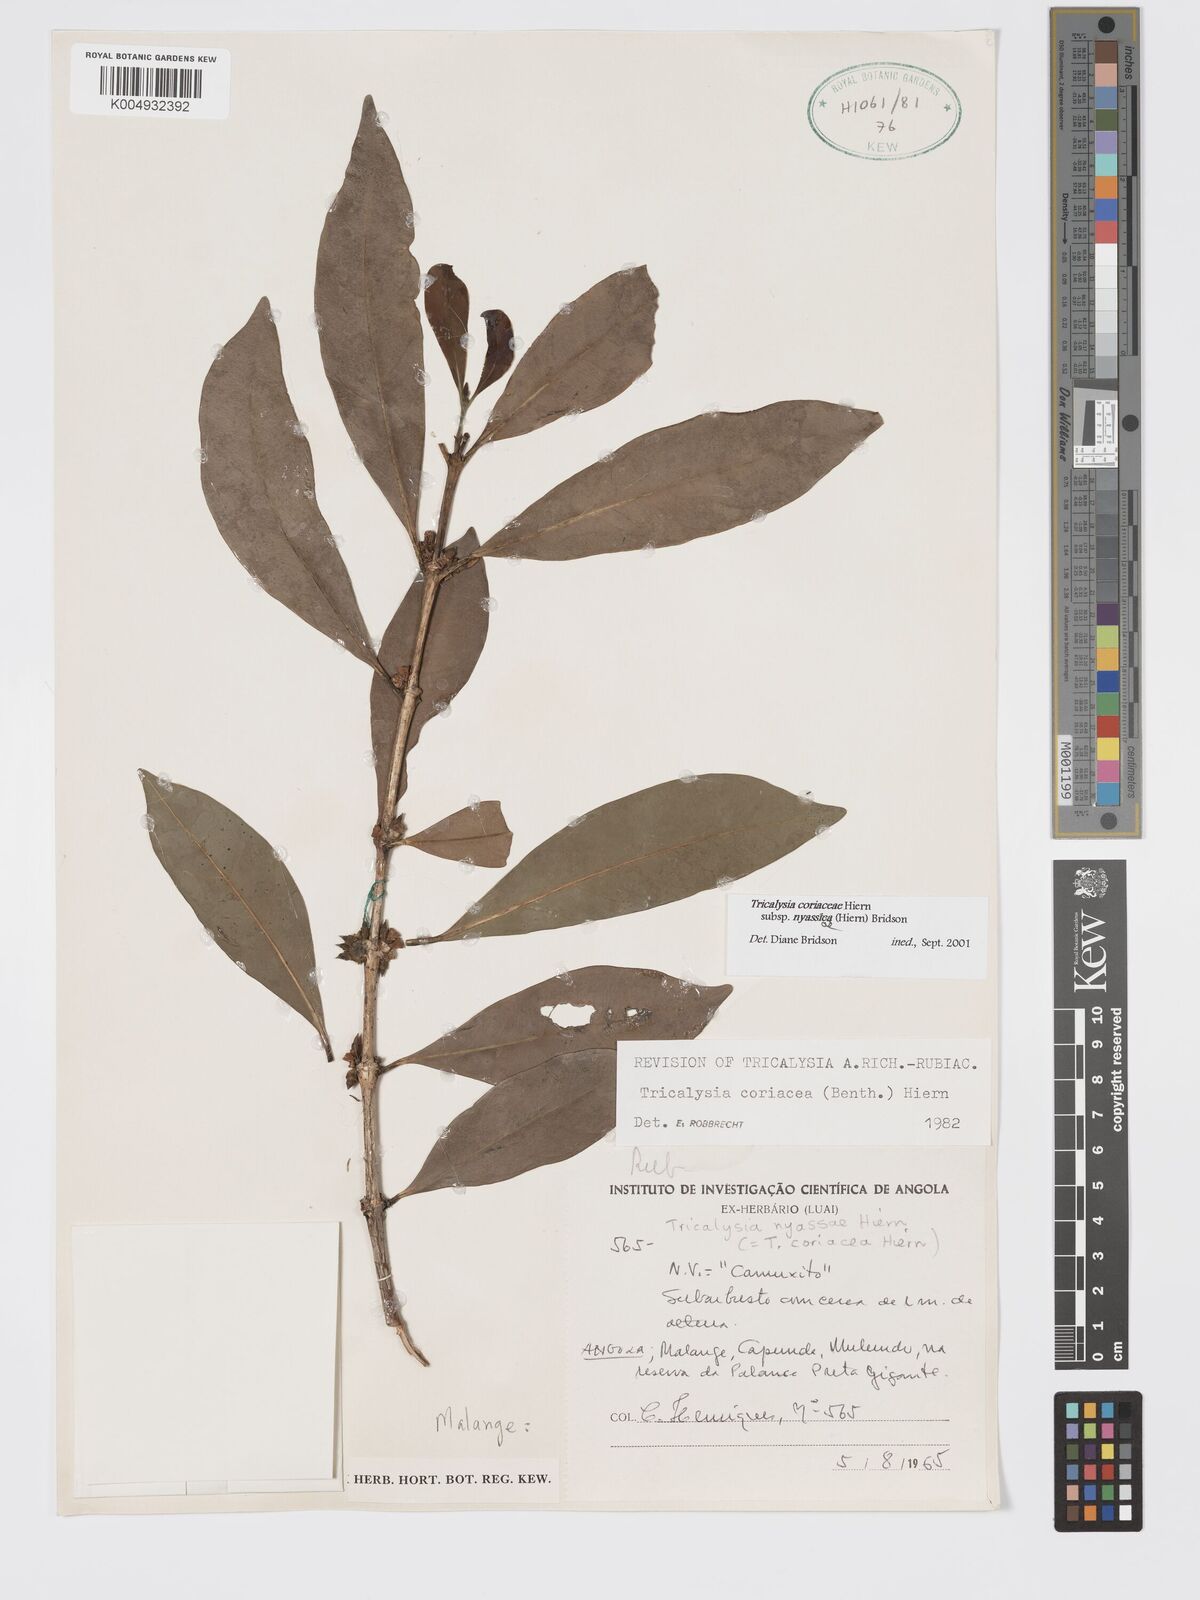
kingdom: Plantae
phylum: Tracheophyta
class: Magnoliopsida
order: Gentianales
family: Rubiaceae
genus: Tricalysia
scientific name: Tricalysia coriacea
